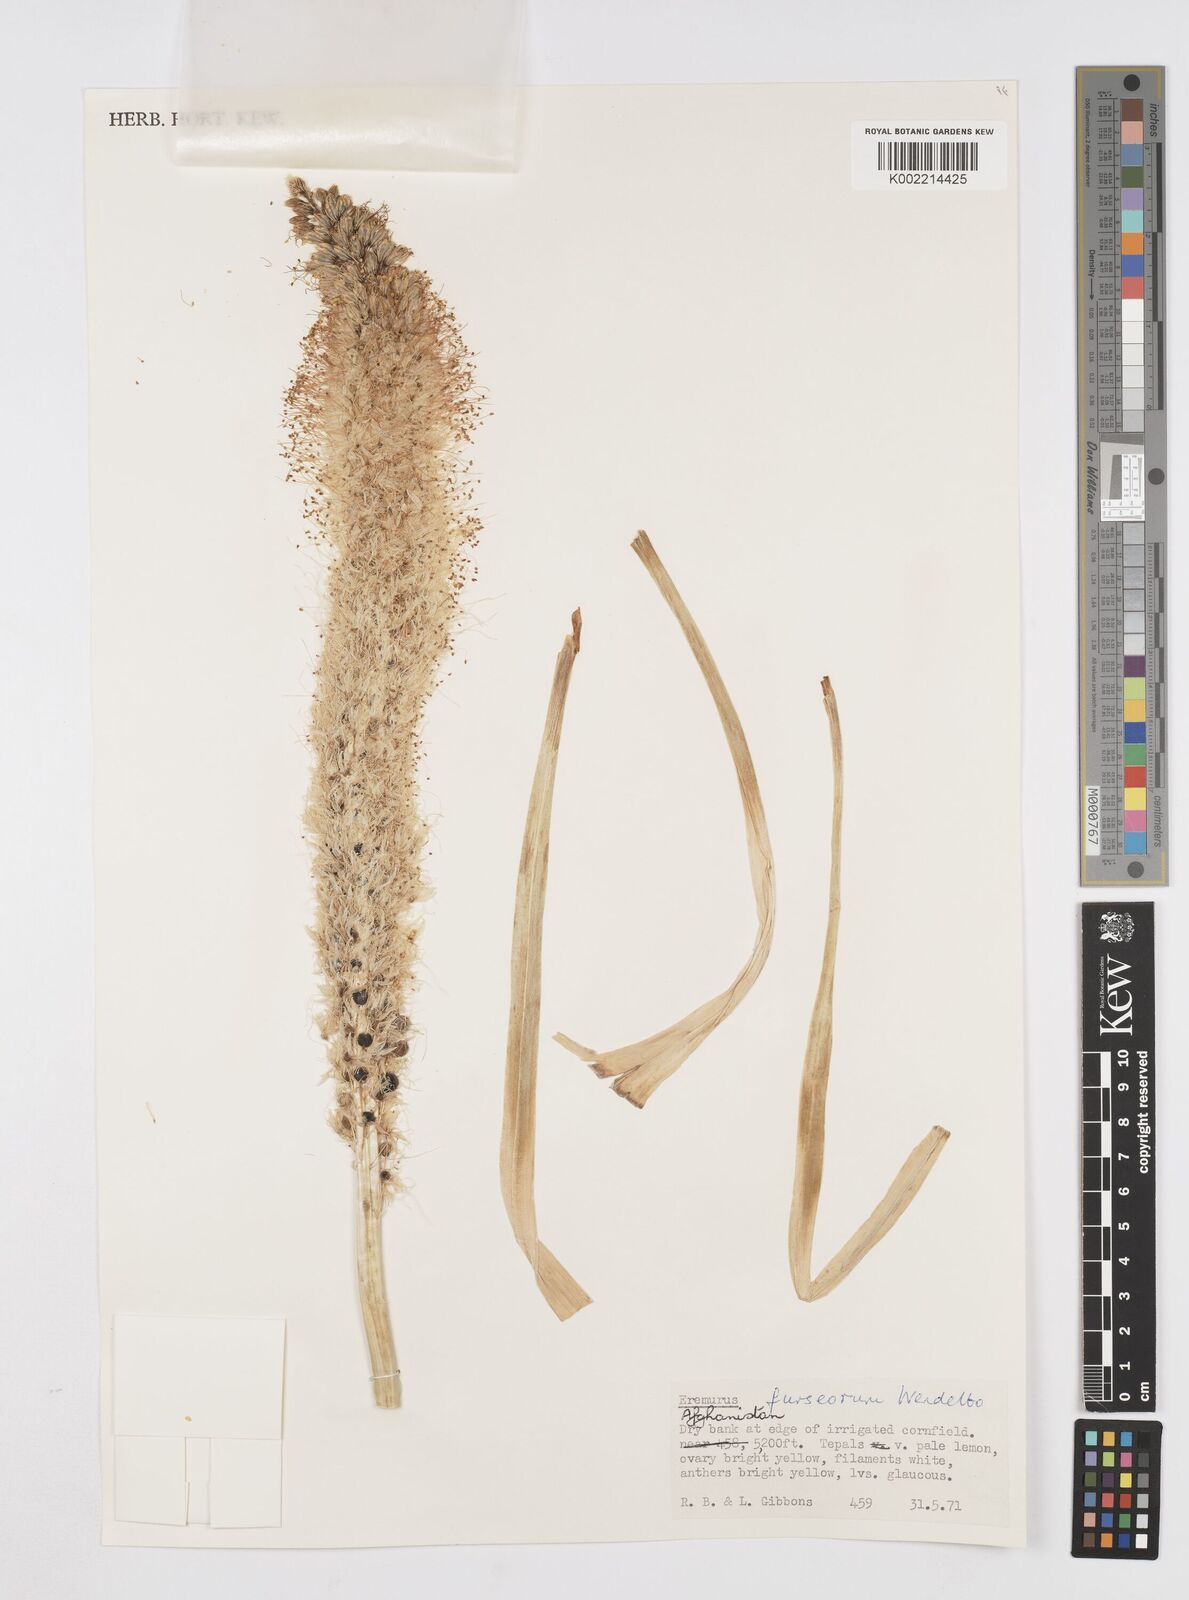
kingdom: Plantae
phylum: Tracheophyta
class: Liliopsida
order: Asparagales
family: Asphodelaceae
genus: Eremurus
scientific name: Eremurus furseorum
